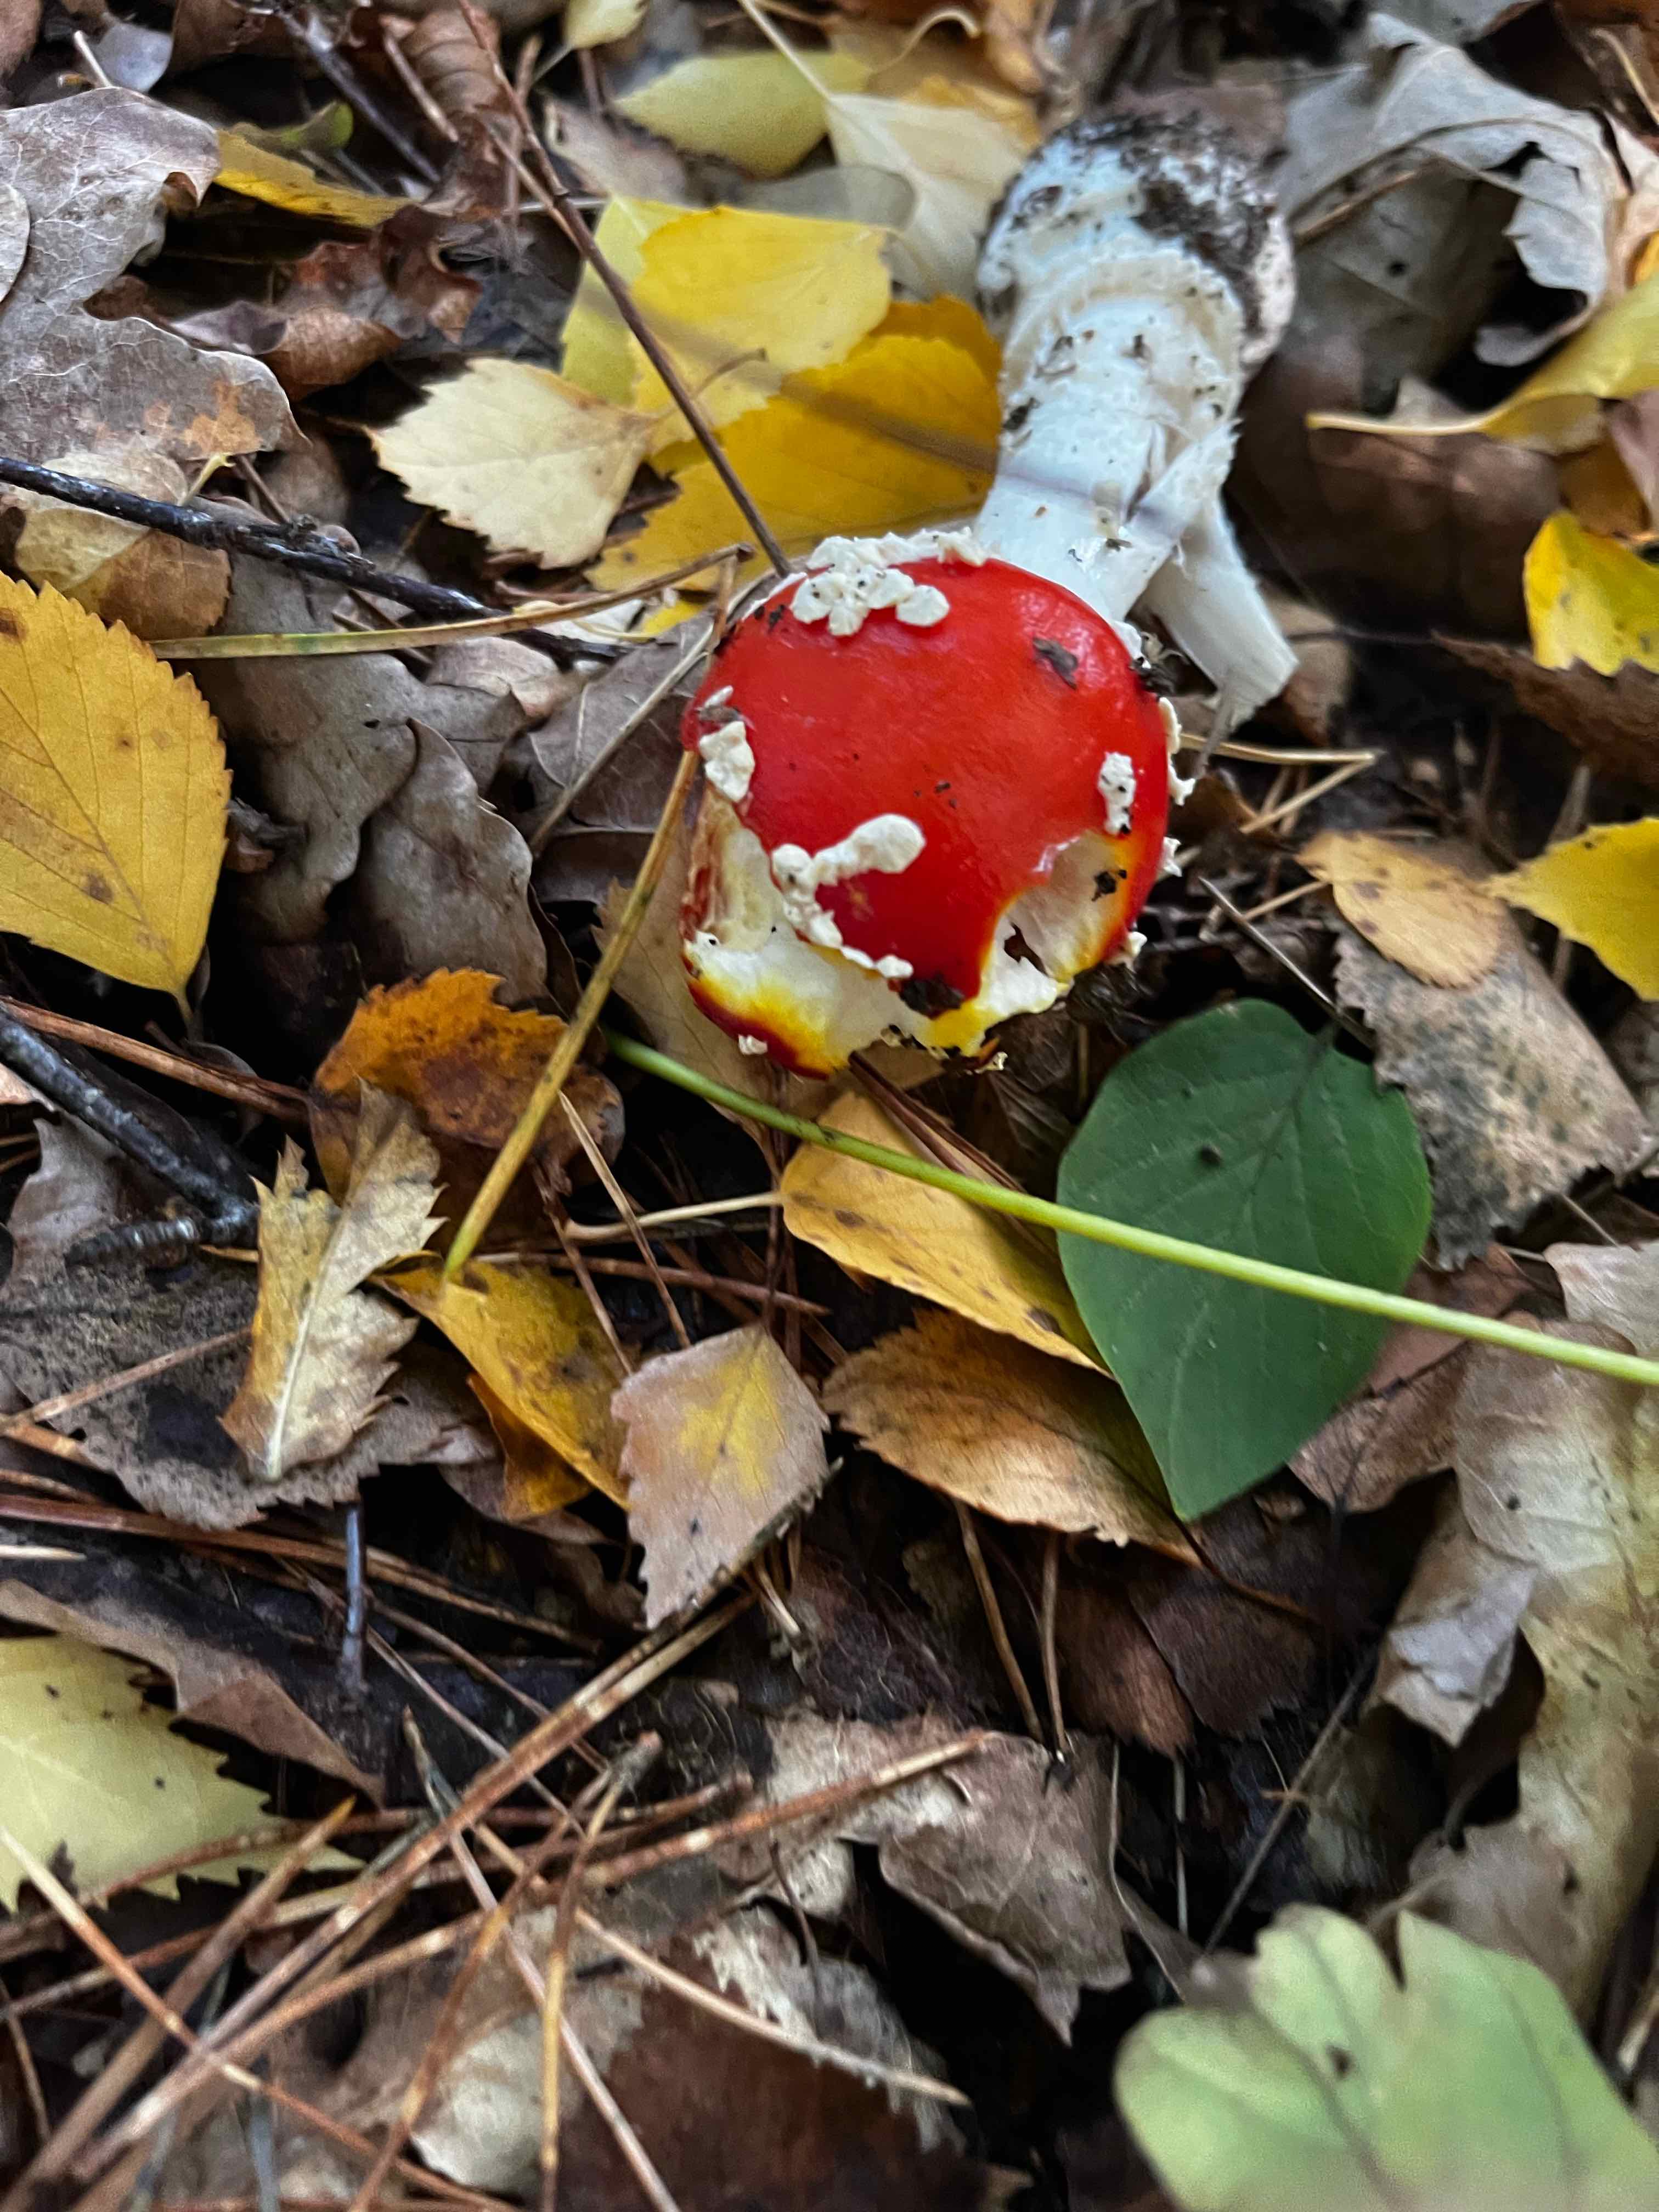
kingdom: Fungi
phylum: Basidiomycota
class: Agaricomycetes
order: Agaricales
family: Amanitaceae
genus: Amanita
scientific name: Amanita muscaria
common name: rød fluesvamp
